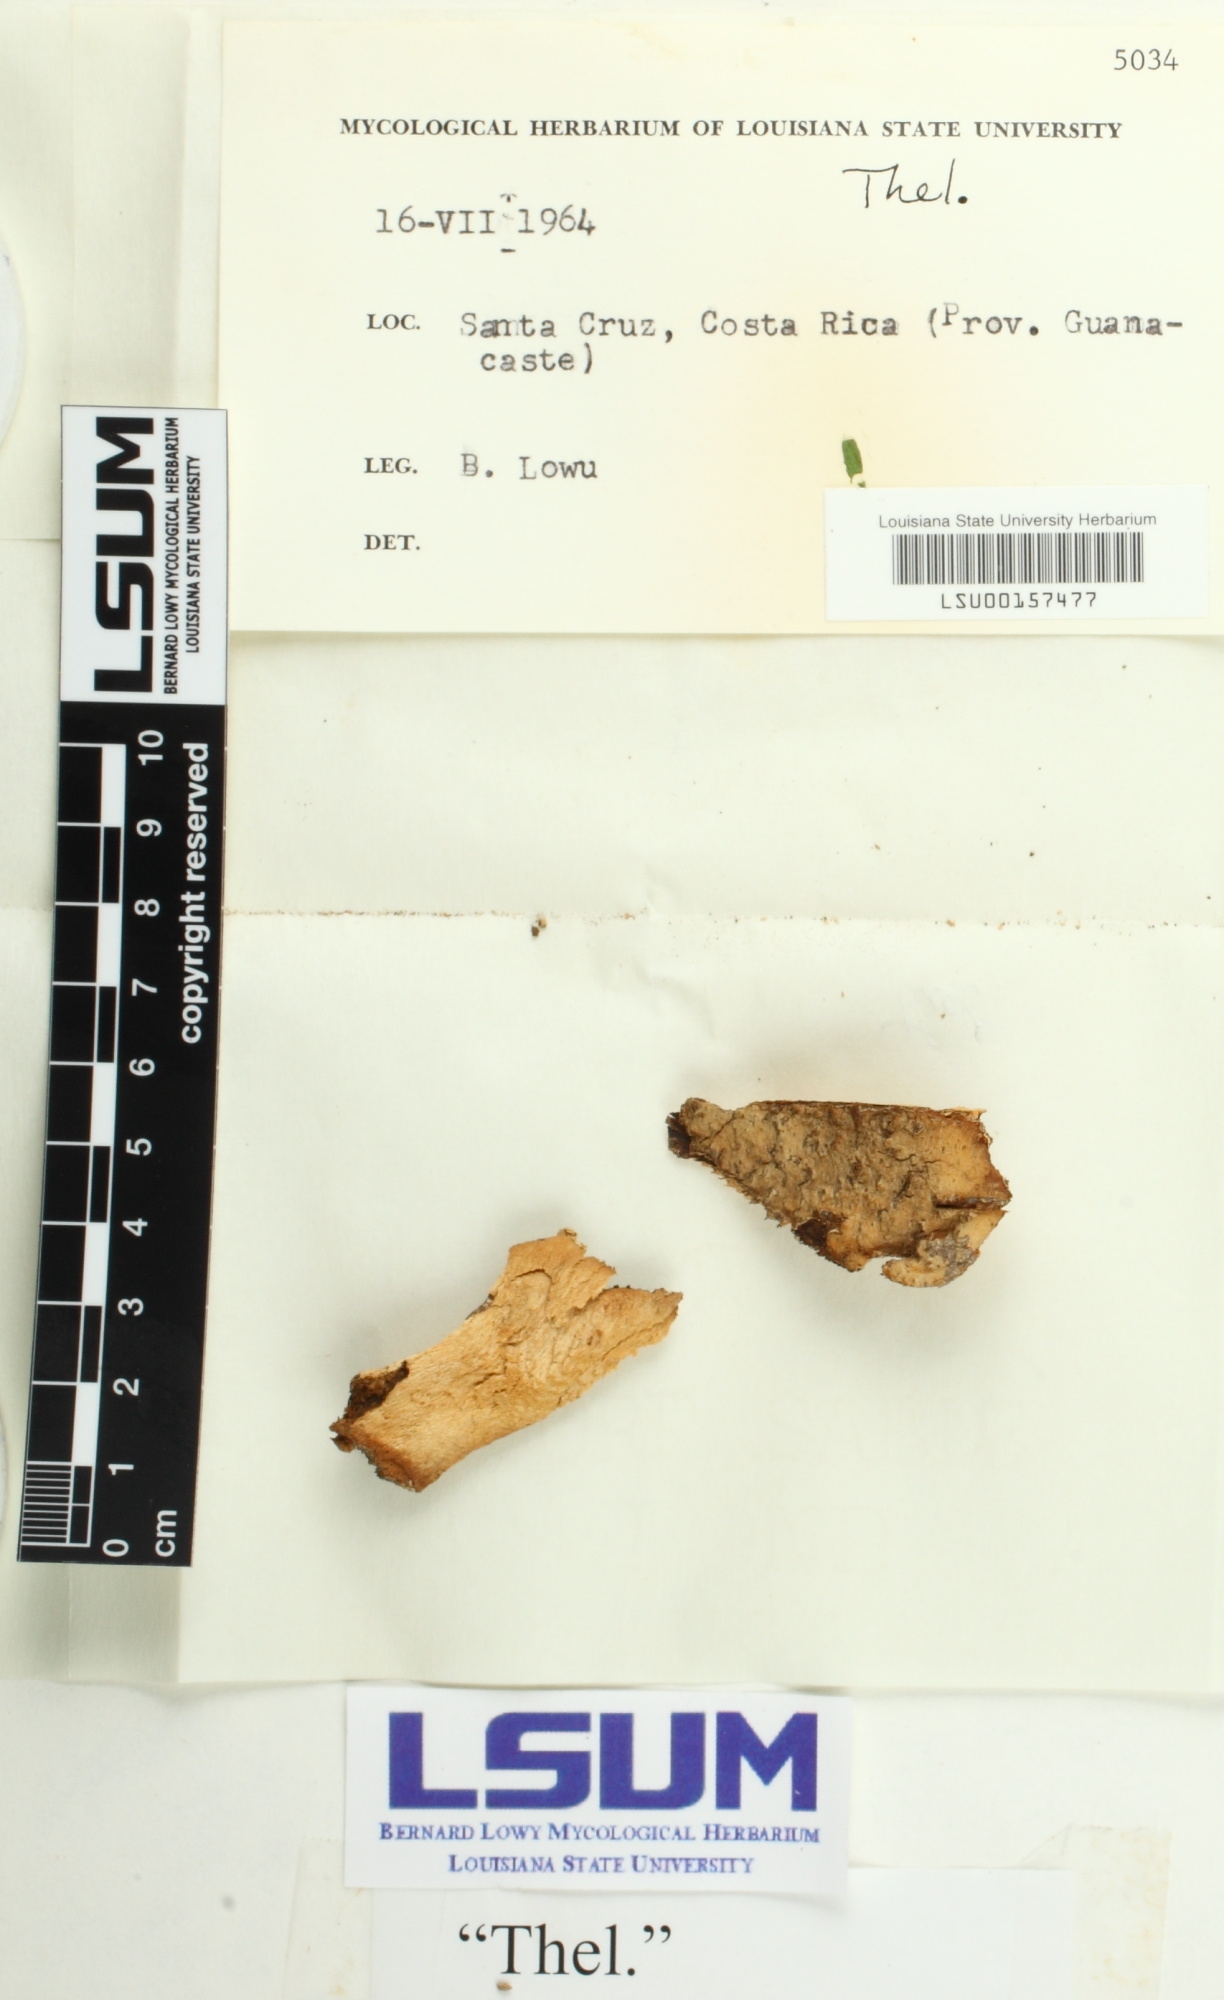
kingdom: Fungi
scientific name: Fungi
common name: Fungi
